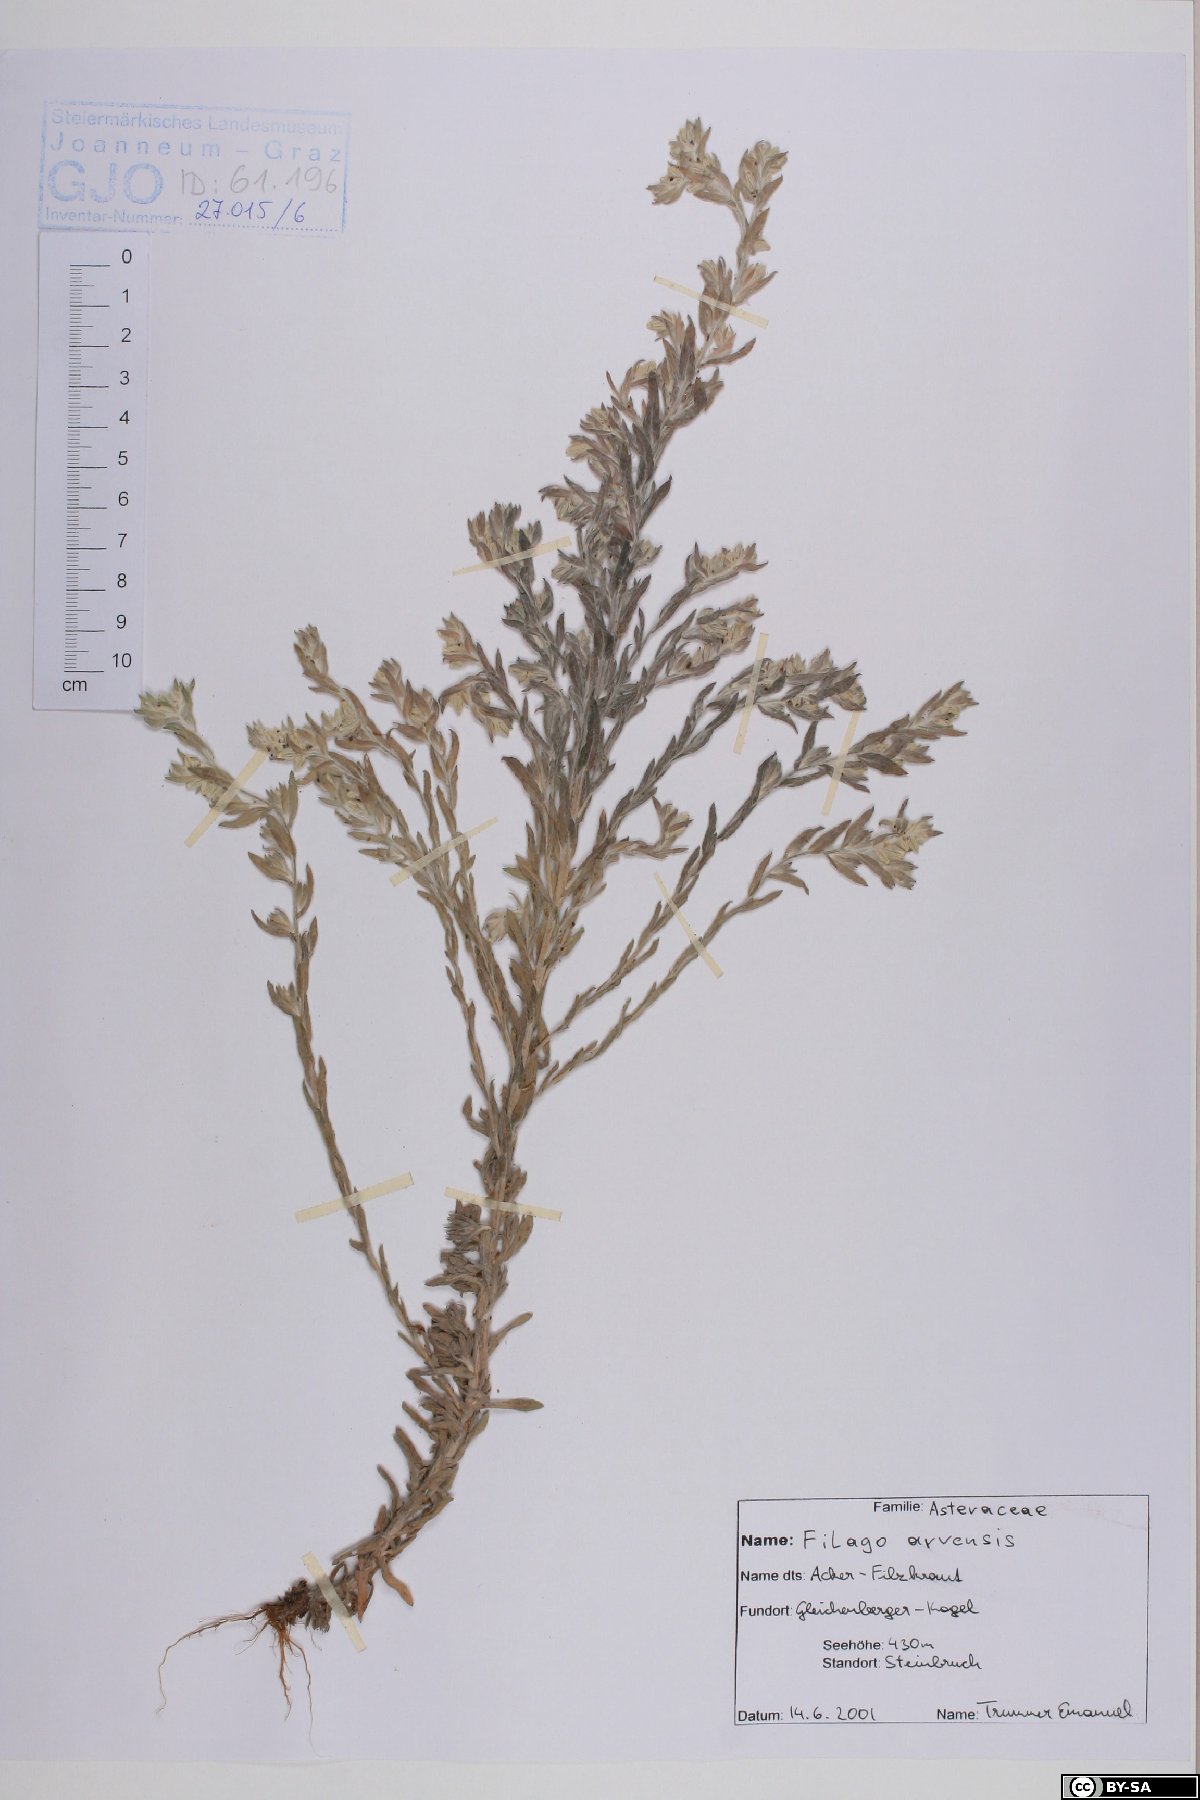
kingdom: Plantae
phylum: Tracheophyta
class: Magnoliopsida
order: Asterales
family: Asteraceae
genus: Filago
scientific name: Filago arvensis
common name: Field cudweed
